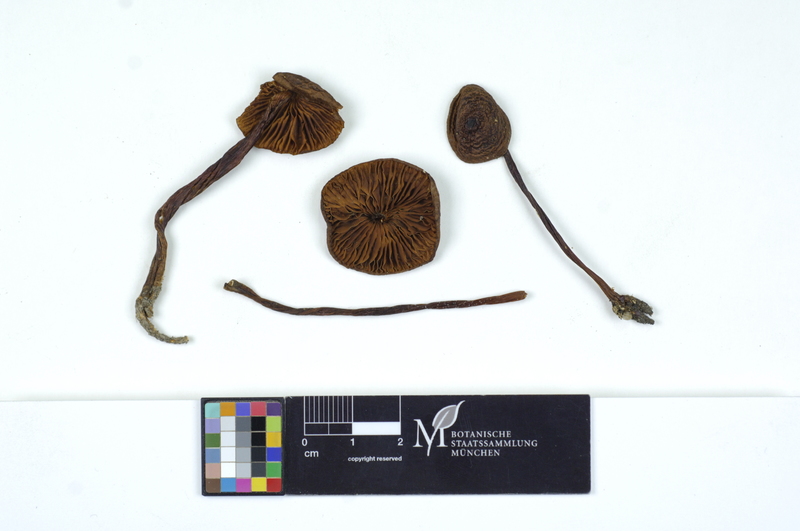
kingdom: Fungi
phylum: Basidiomycota
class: Agaricomycetes
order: Agaricales
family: Mycenaceae
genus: Mycena
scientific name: Mycena
